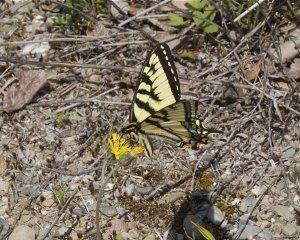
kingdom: Animalia
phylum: Arthropoda
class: Insecta
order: Lepidoptera
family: Papilionidae
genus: Pterourus
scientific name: Pterourus canadensis
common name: Canadian Tiger Swallowtail
